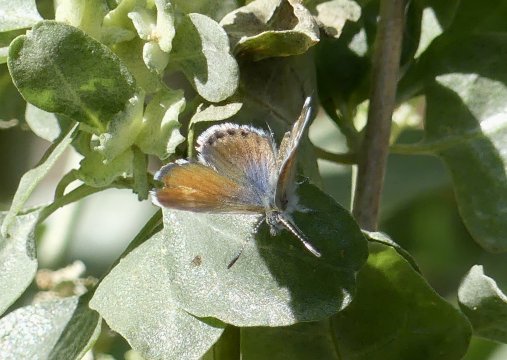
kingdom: Animalia
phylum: Arthropoda
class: Insecta
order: Lepidoptera
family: Lycaenidae
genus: Brephidium
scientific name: Brephidium exilis
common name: Western Pygmy-Blue
